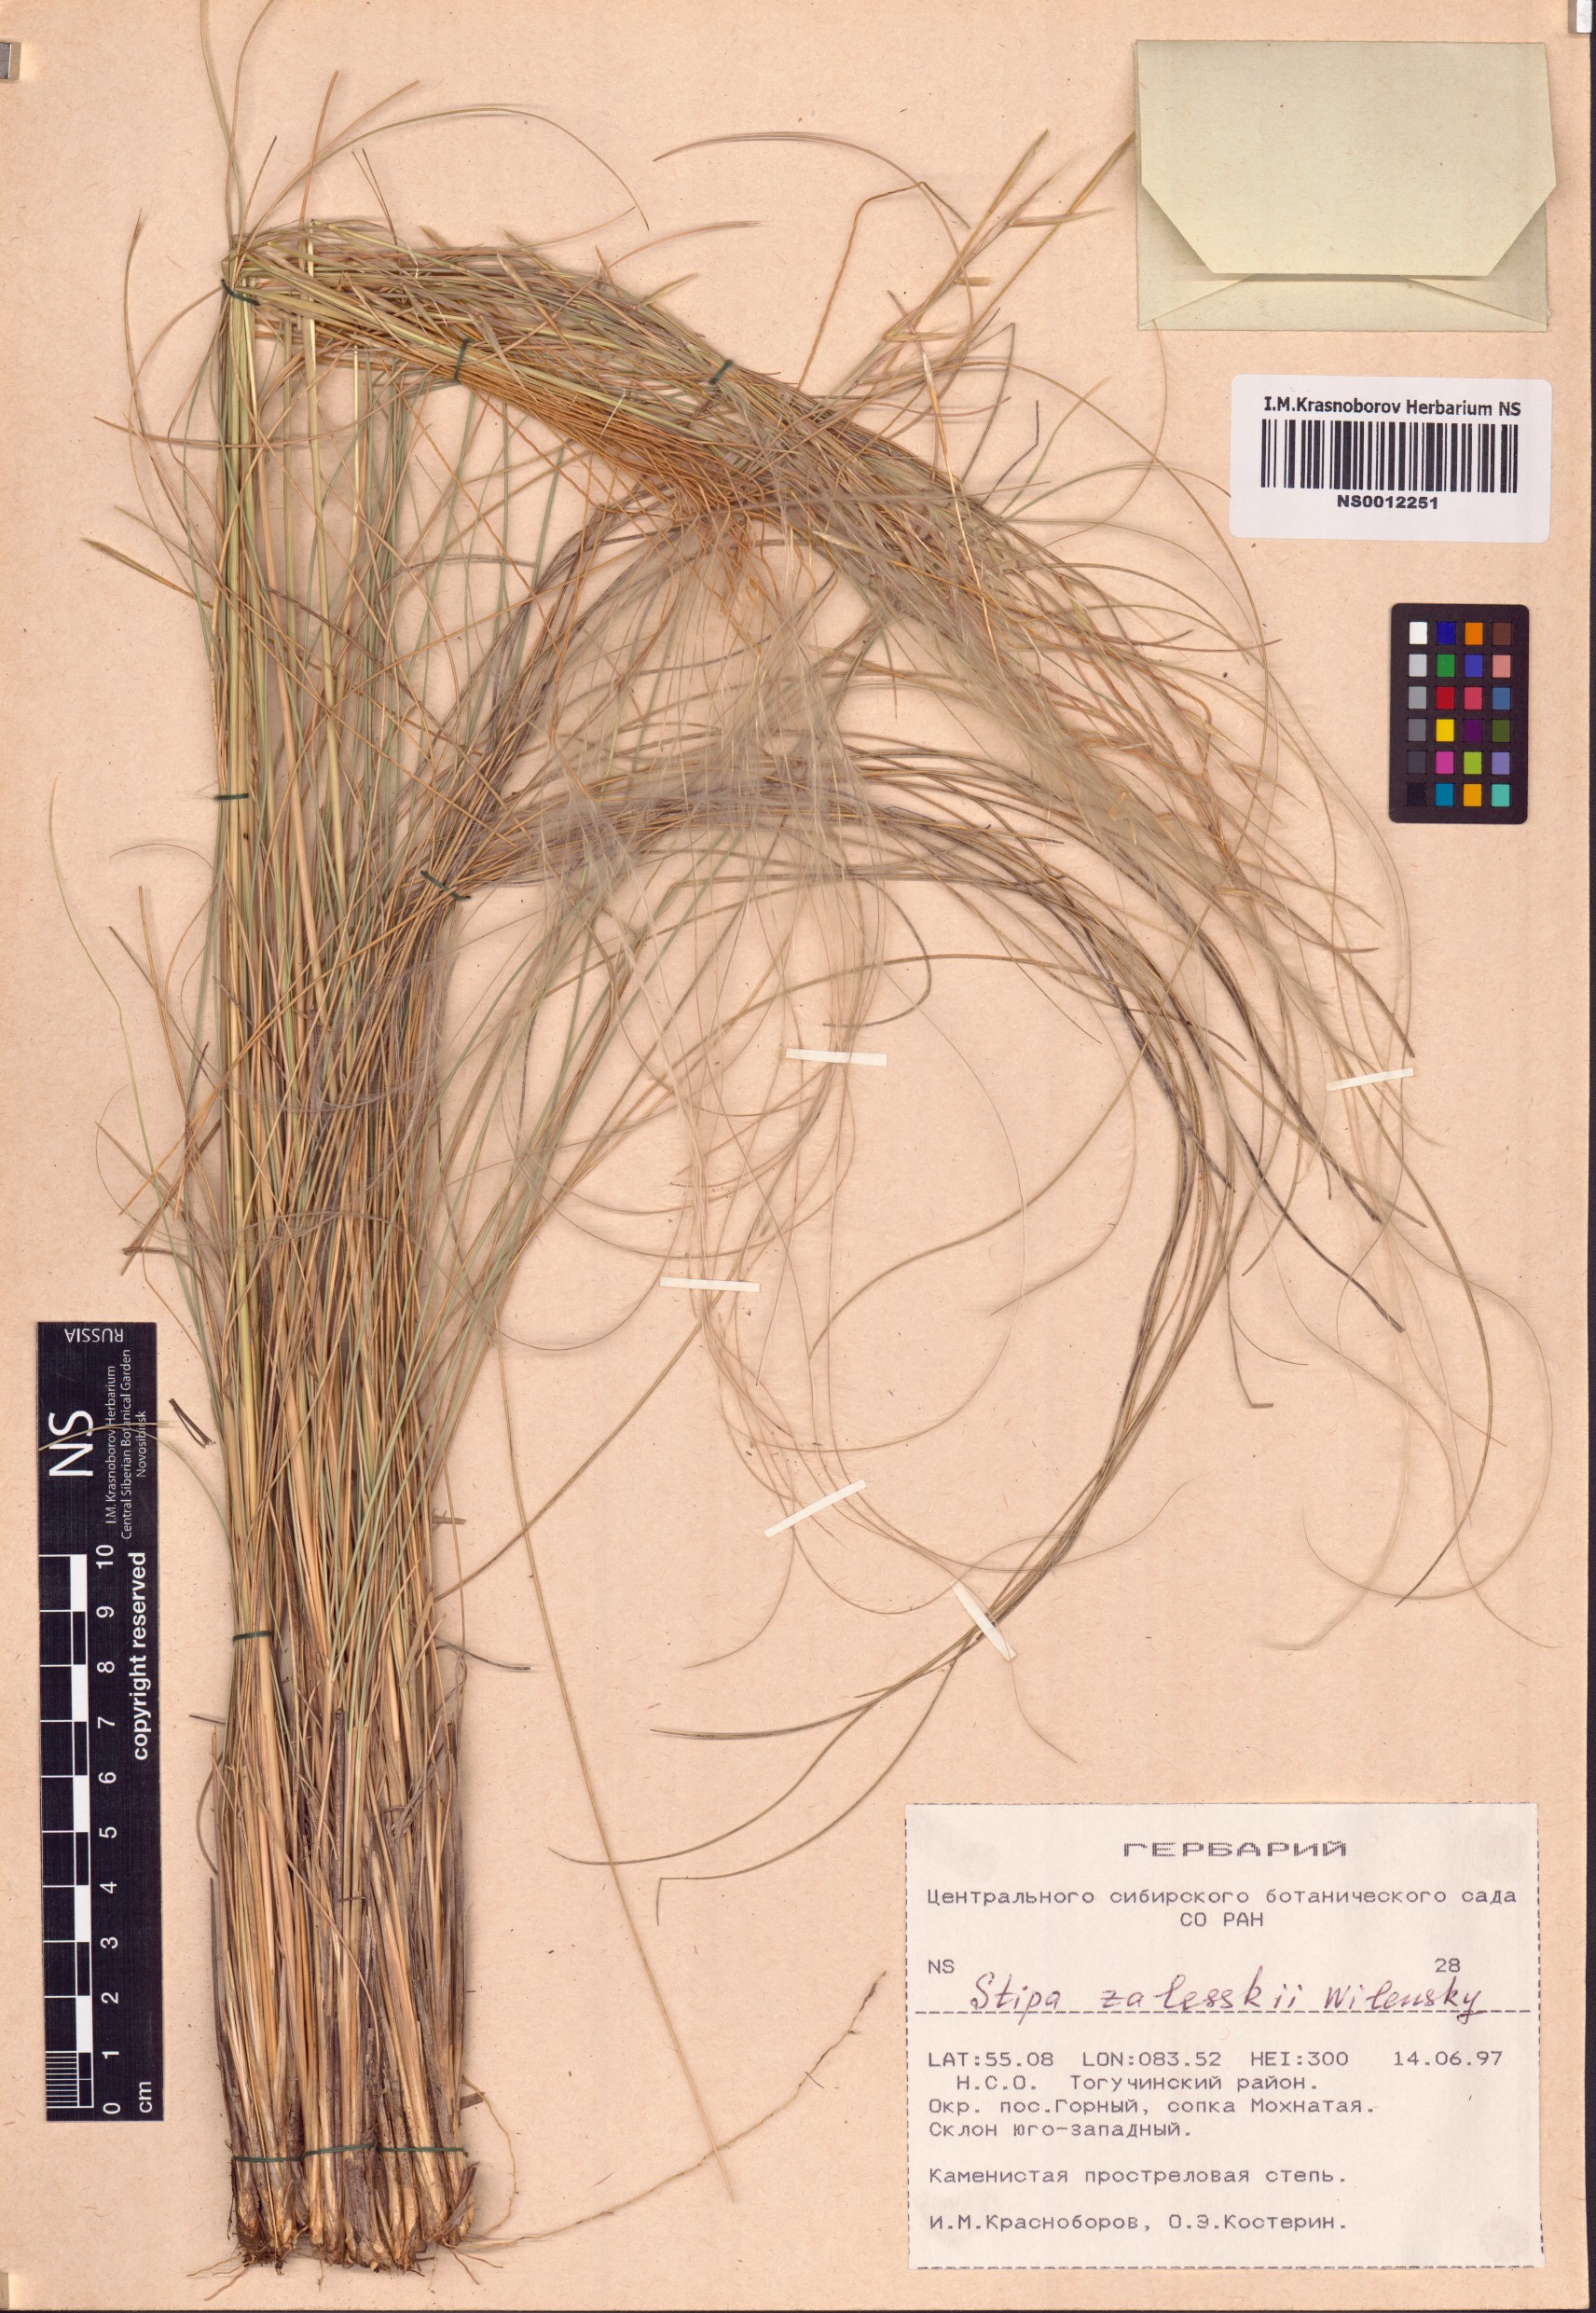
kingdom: Plantae
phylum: Tracheophyta
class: Liliopsida
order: Poales
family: Poaceae
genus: Stipa
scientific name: Stipa zalesskii
